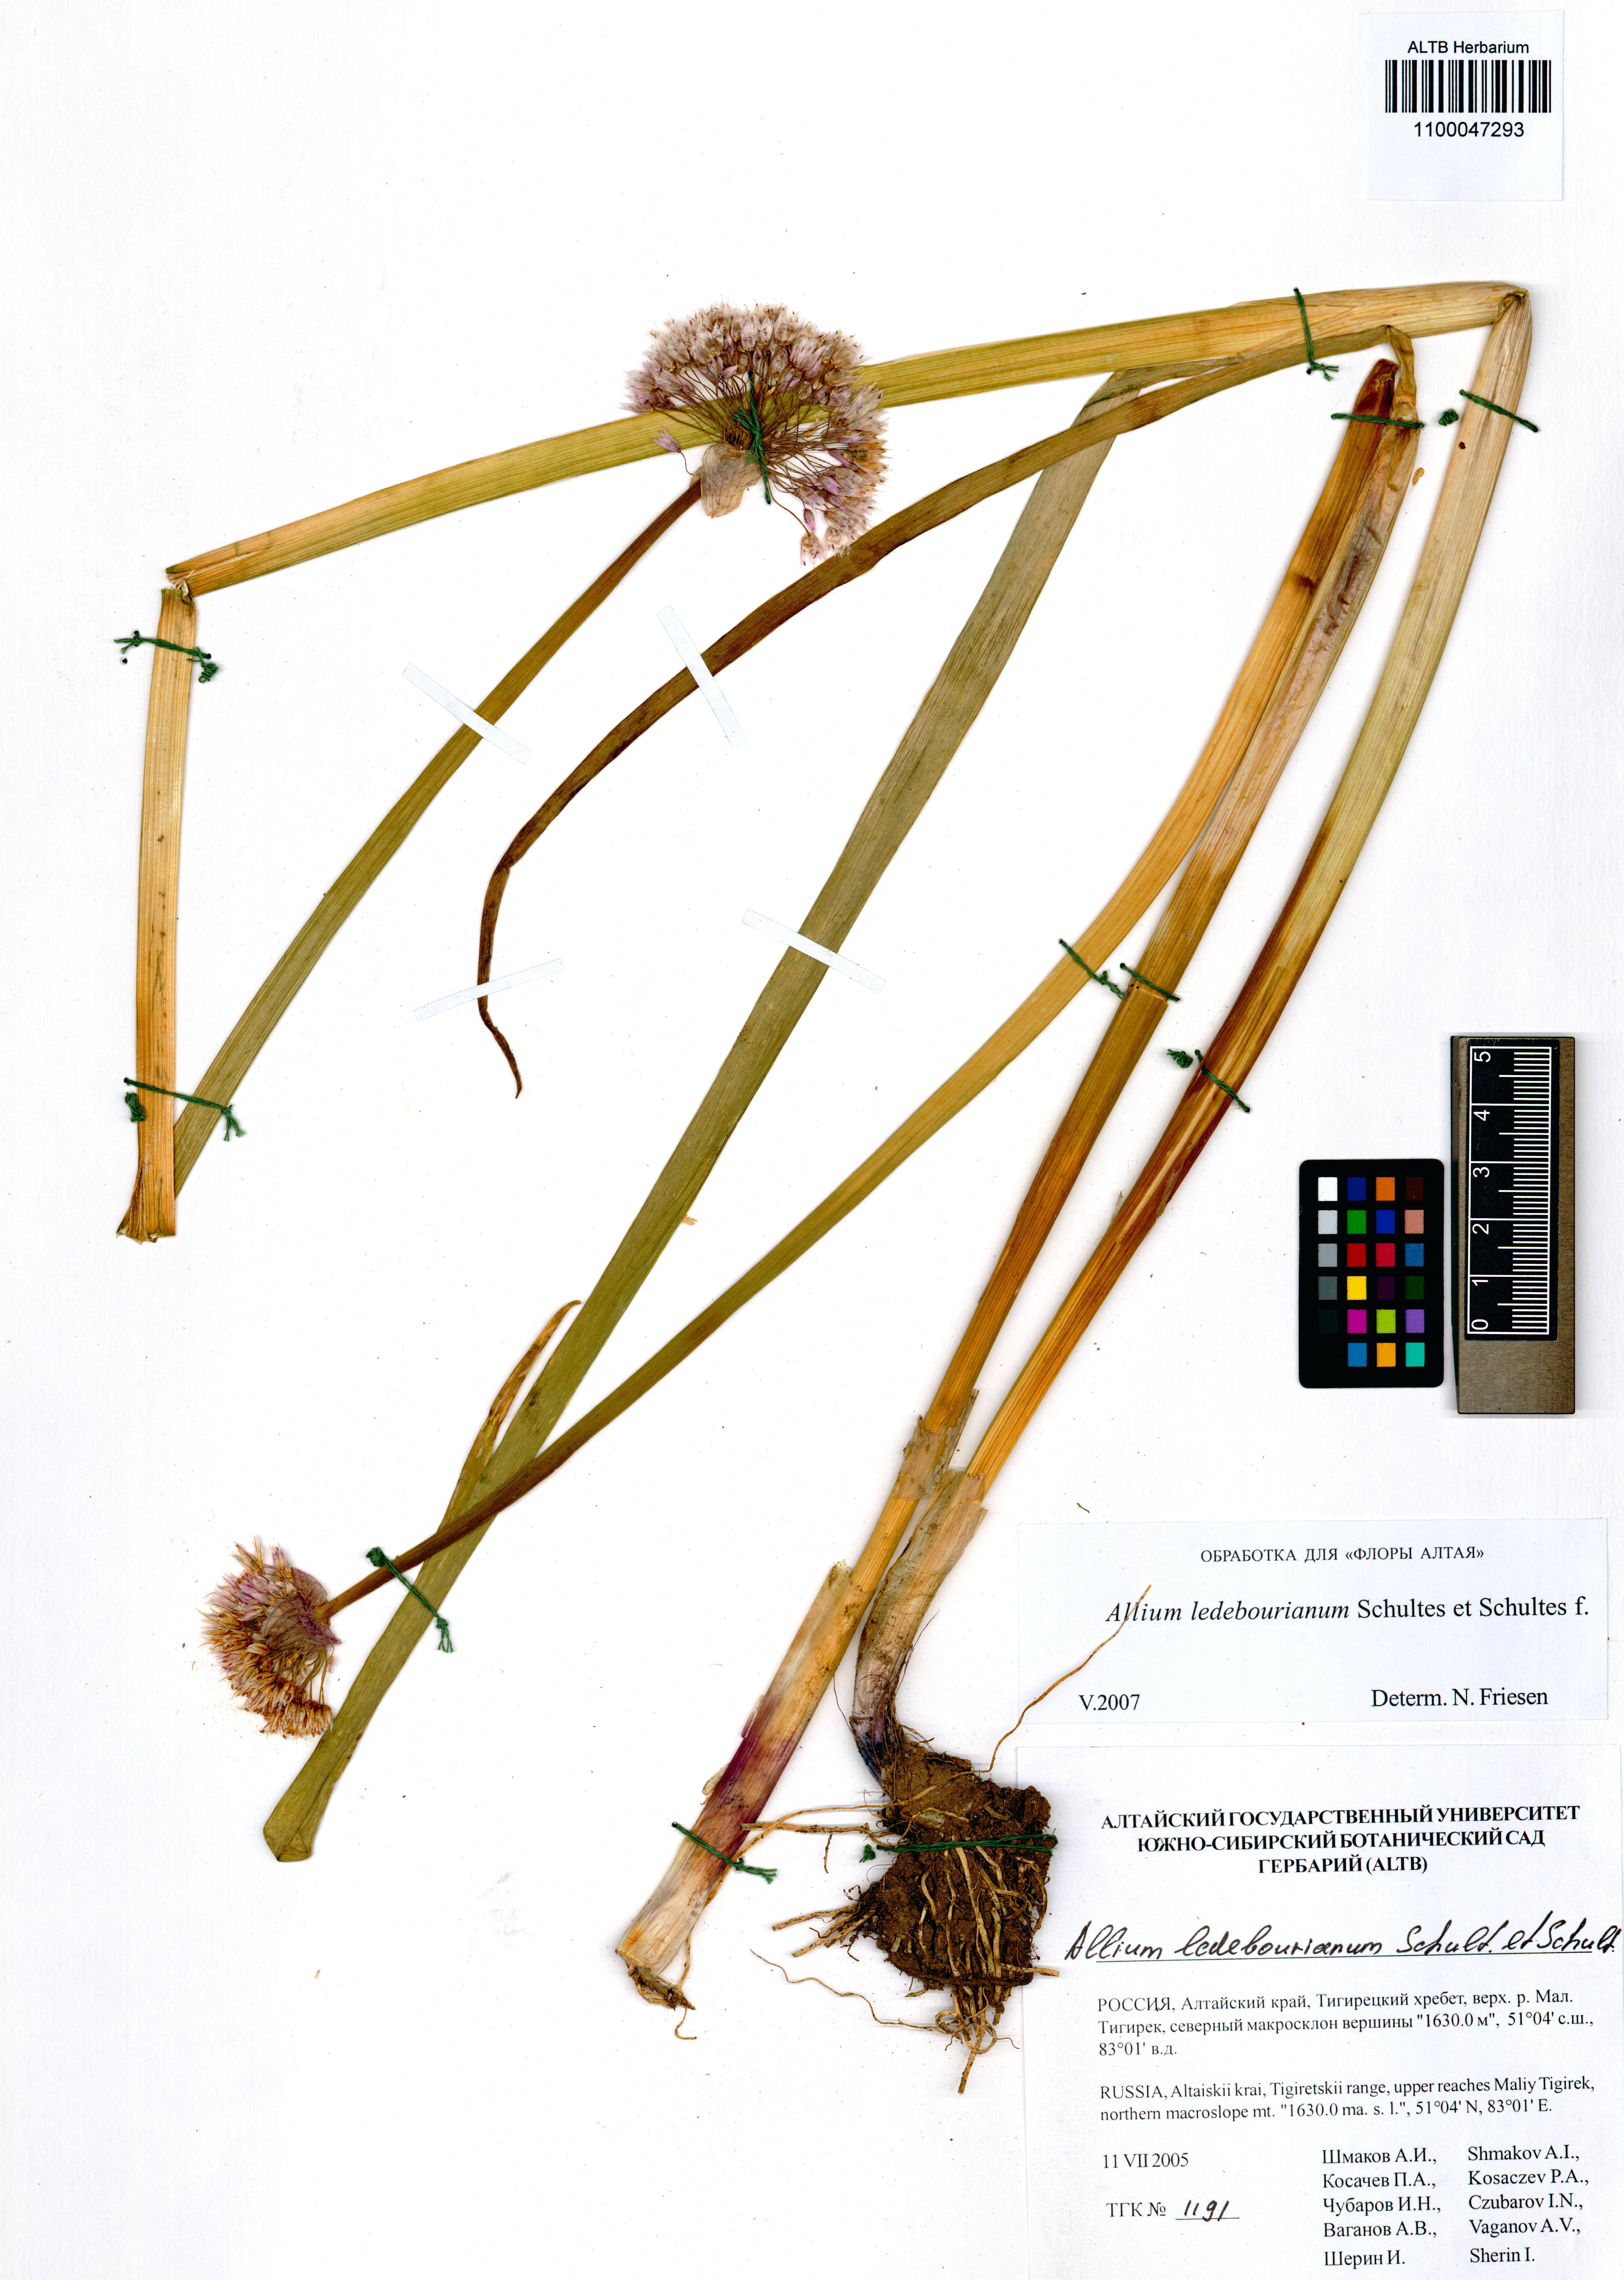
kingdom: Plantae
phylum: Tracheophyta
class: Liliopsida
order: Asparagales
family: Amaryllidaceae
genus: Allium
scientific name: Allium ledebourianum
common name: Ledebour chive
